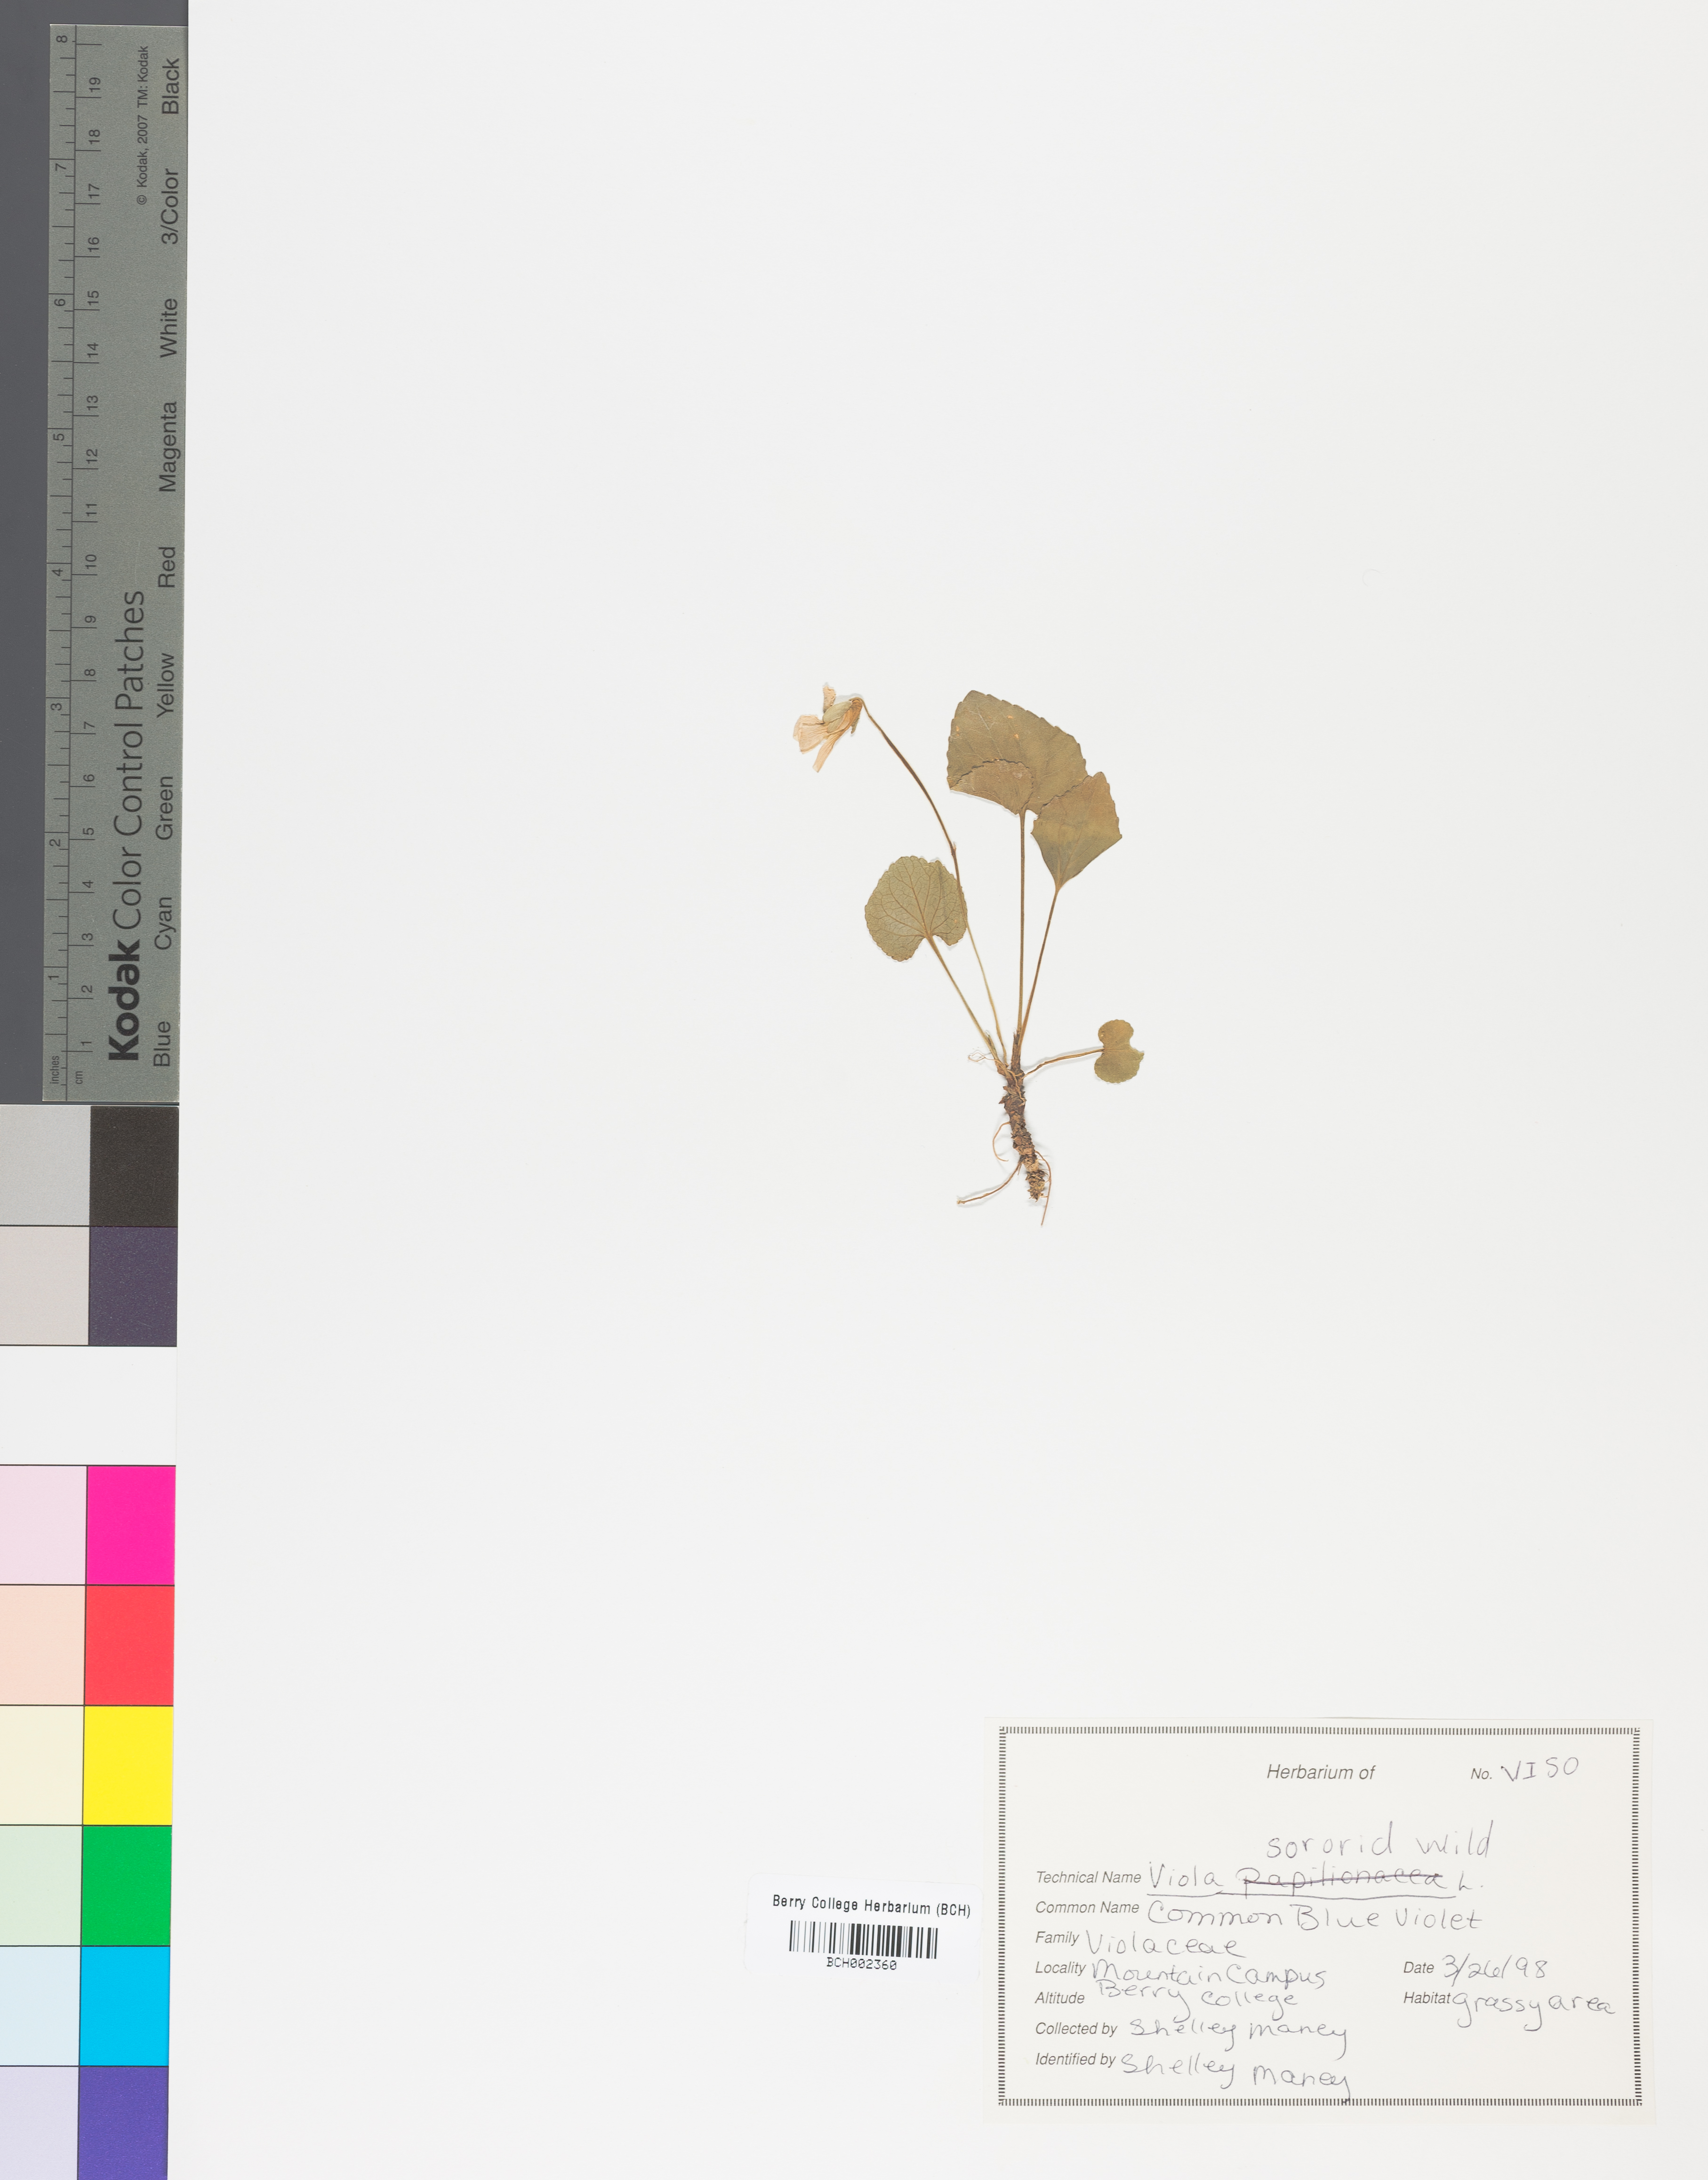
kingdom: Plantae
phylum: Tracheophyta
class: Magnoliopsida
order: Malpighiales
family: Violaceae
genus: Viola
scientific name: Viola sororia
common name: Dooryard violet
